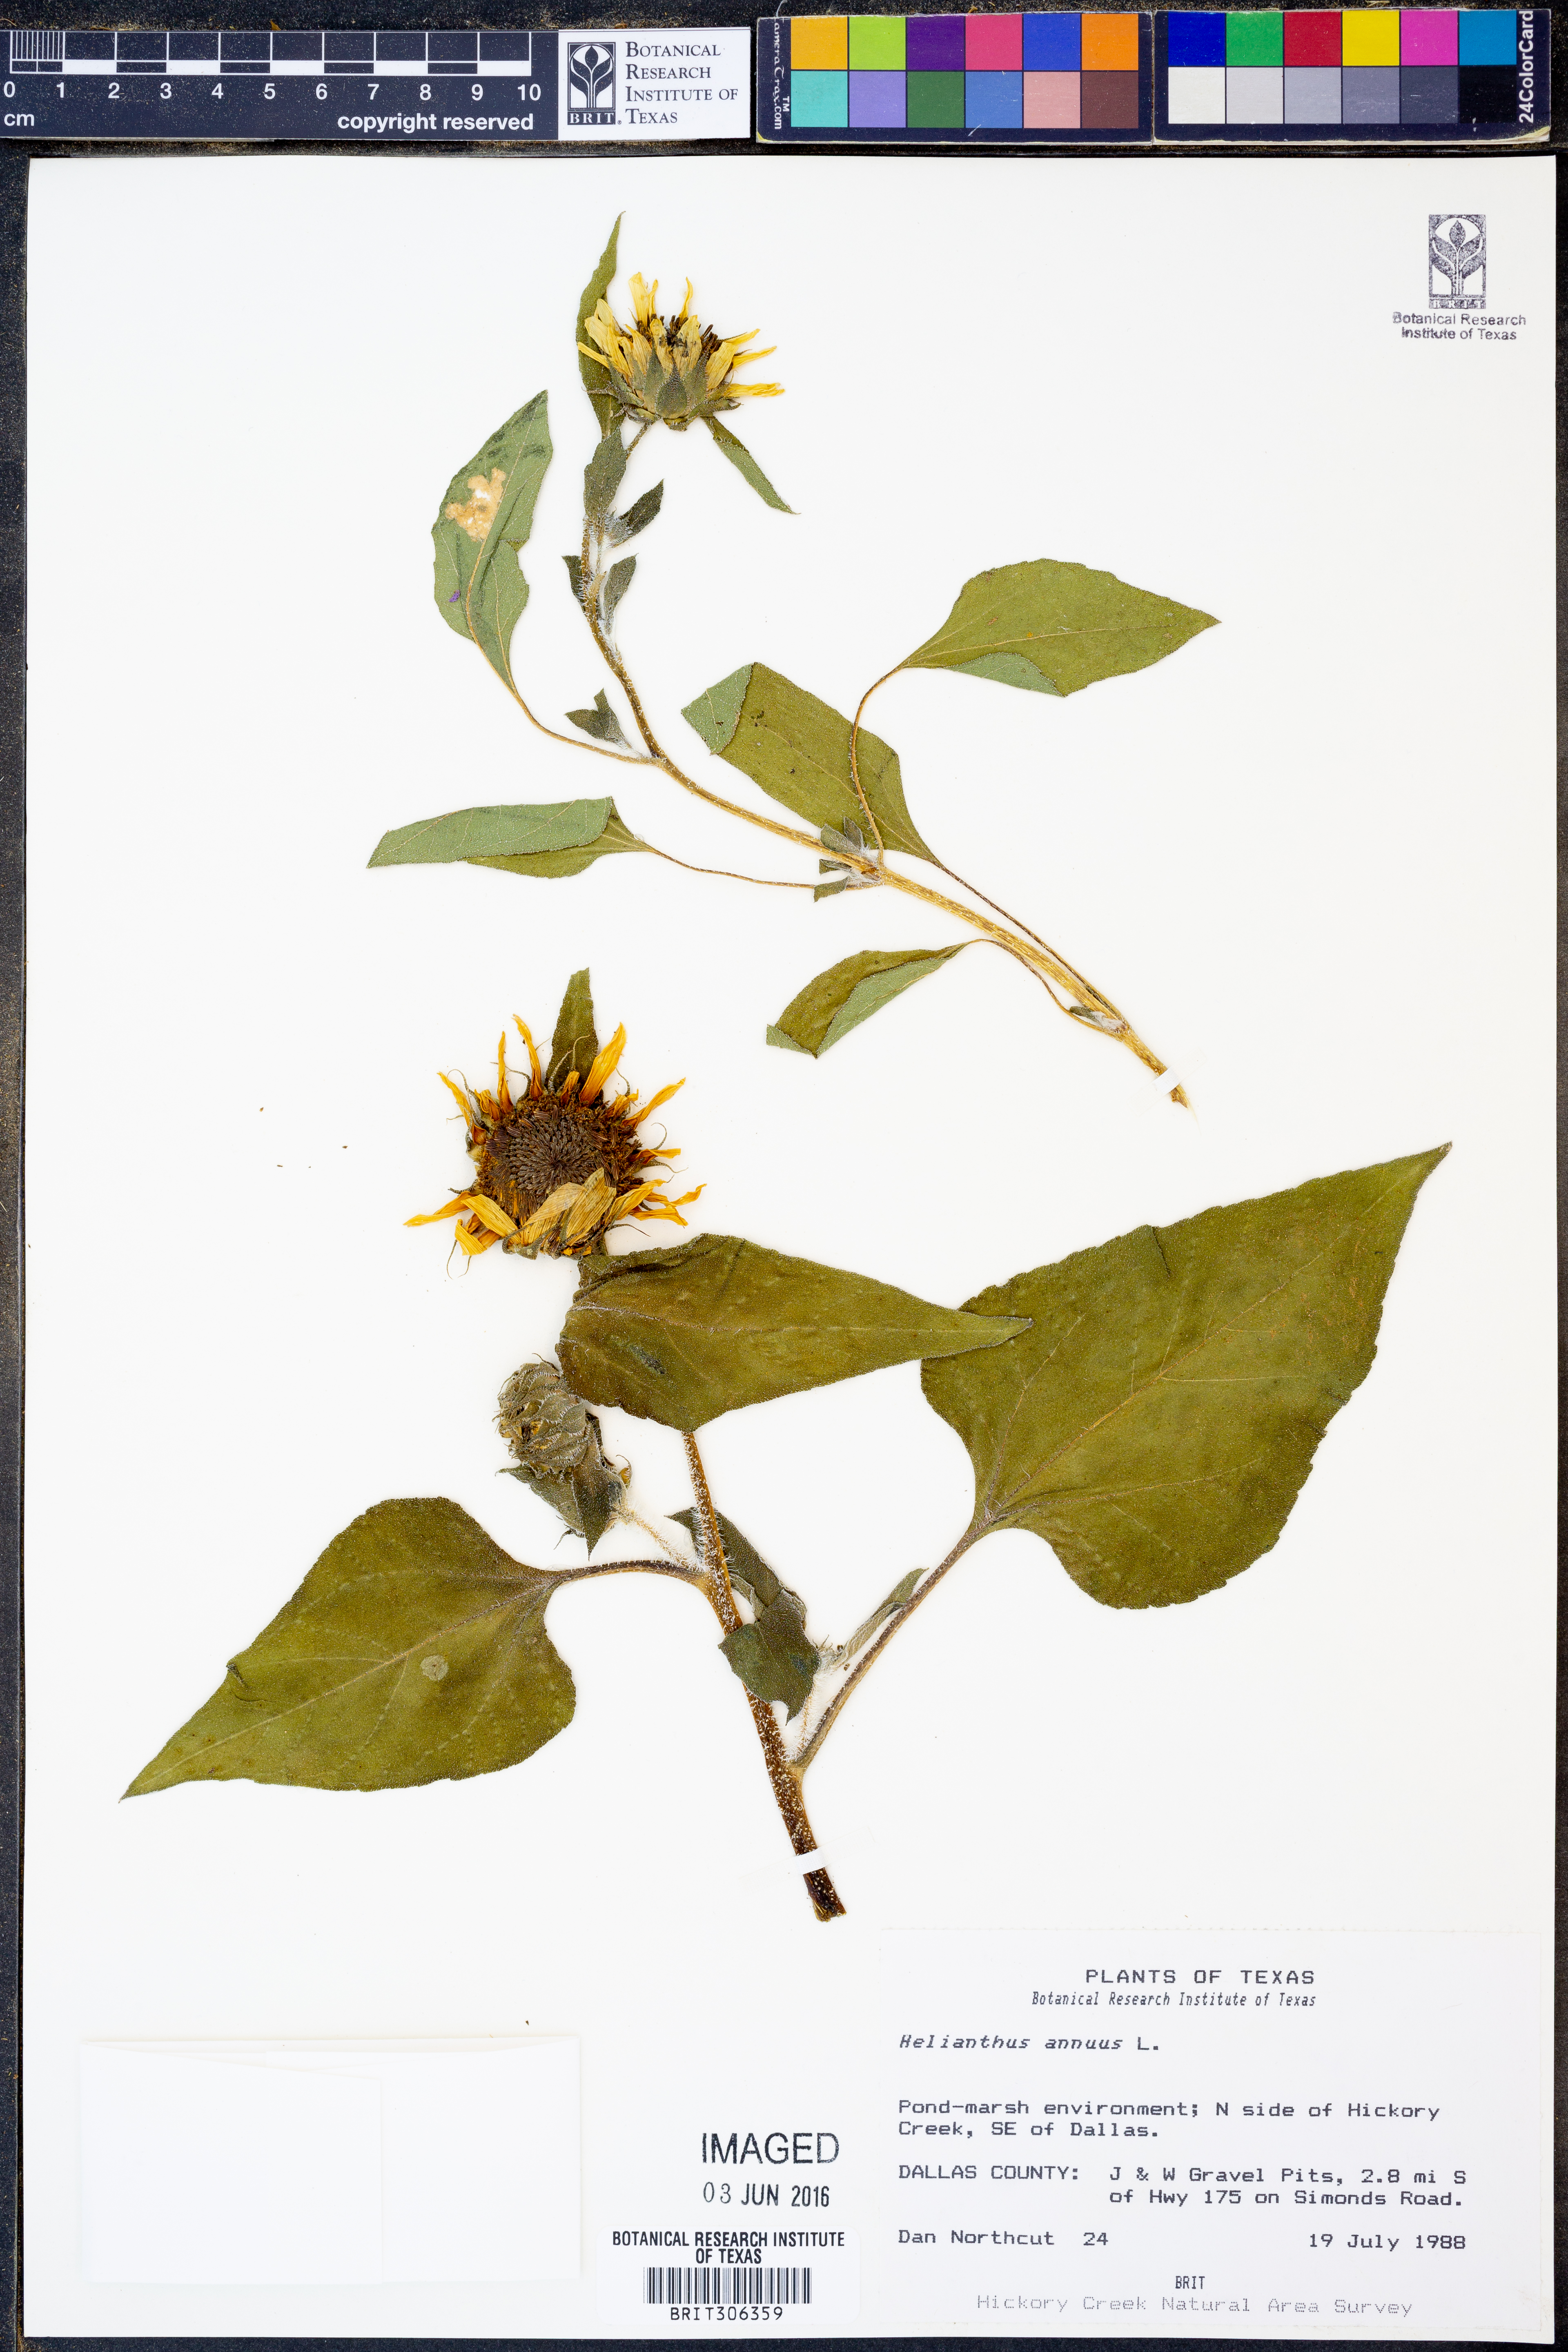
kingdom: Plantae
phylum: Tracheophyta
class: Magnoliopsida
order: Asterales
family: Asteraceae
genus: Helianthus
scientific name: Helianthus annuus
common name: Sunflower
